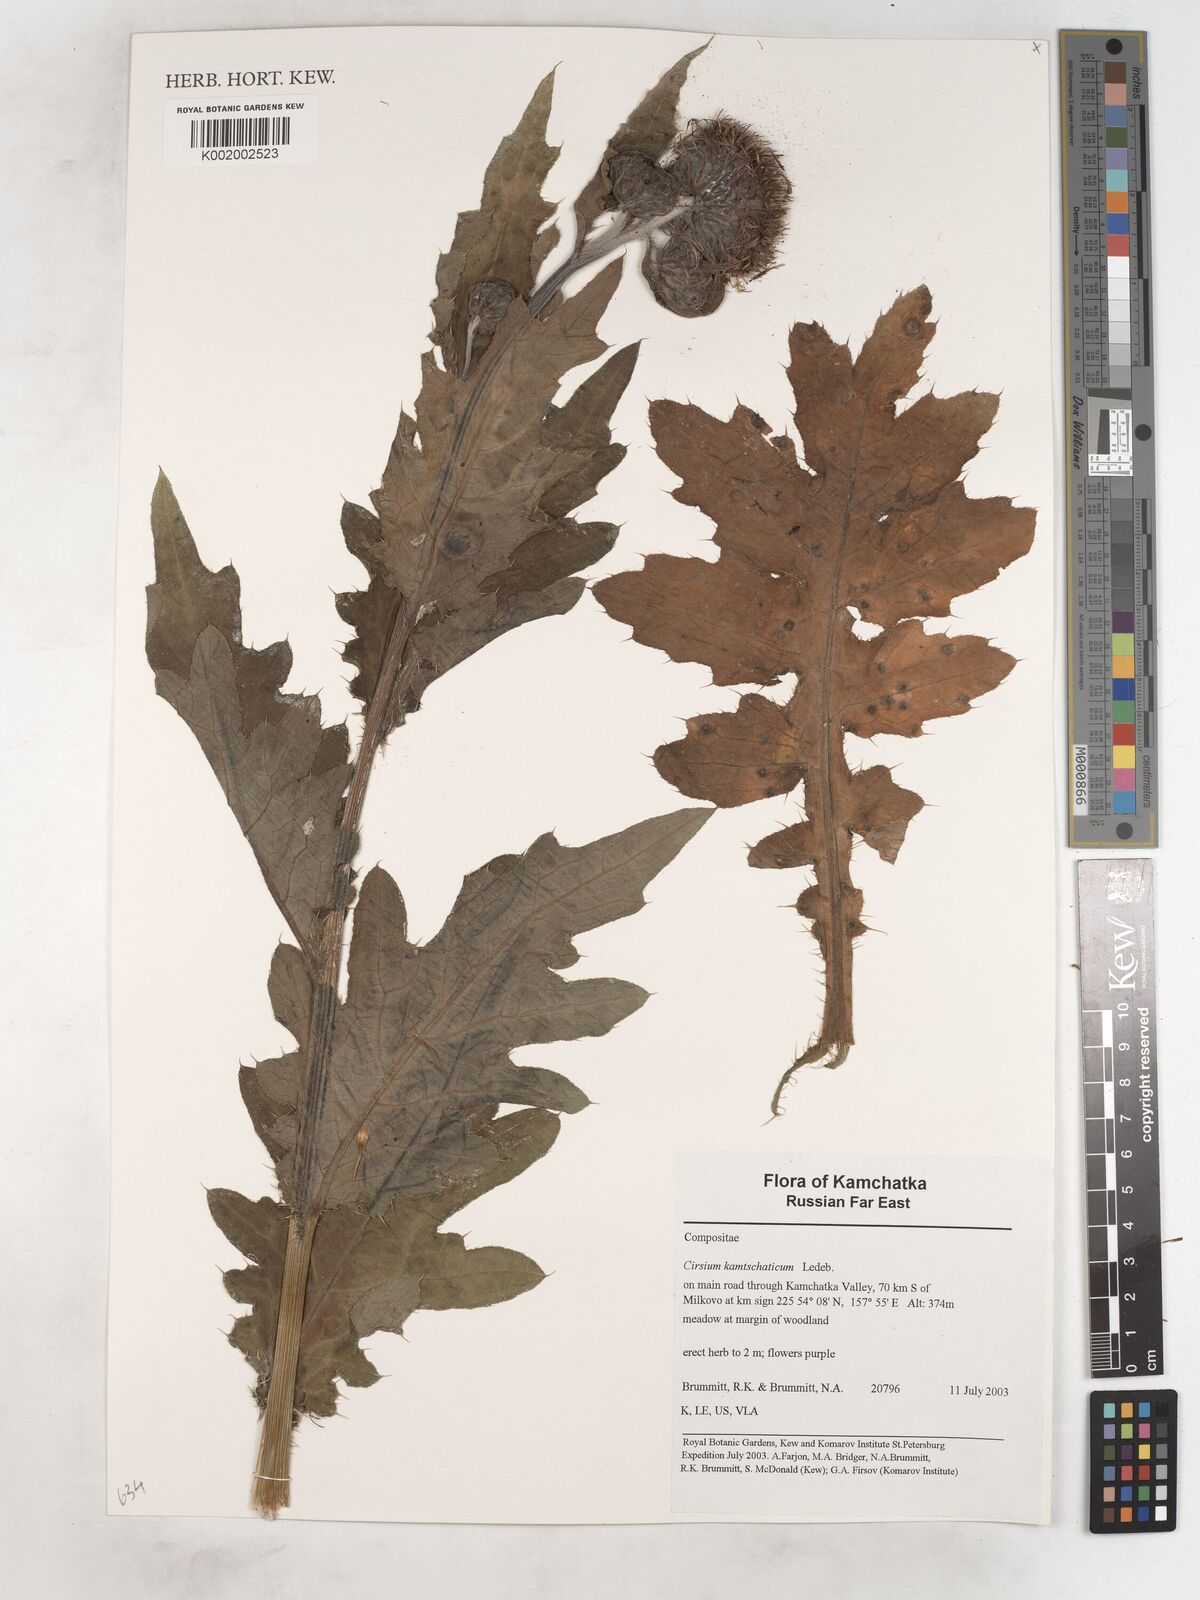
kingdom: Plantae
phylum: Tracheophyta
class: Magnoliopsida
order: Asterales
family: Asteraceae
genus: Cirsium
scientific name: Cirsium kamtschaticum
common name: Kamchatka thistle
